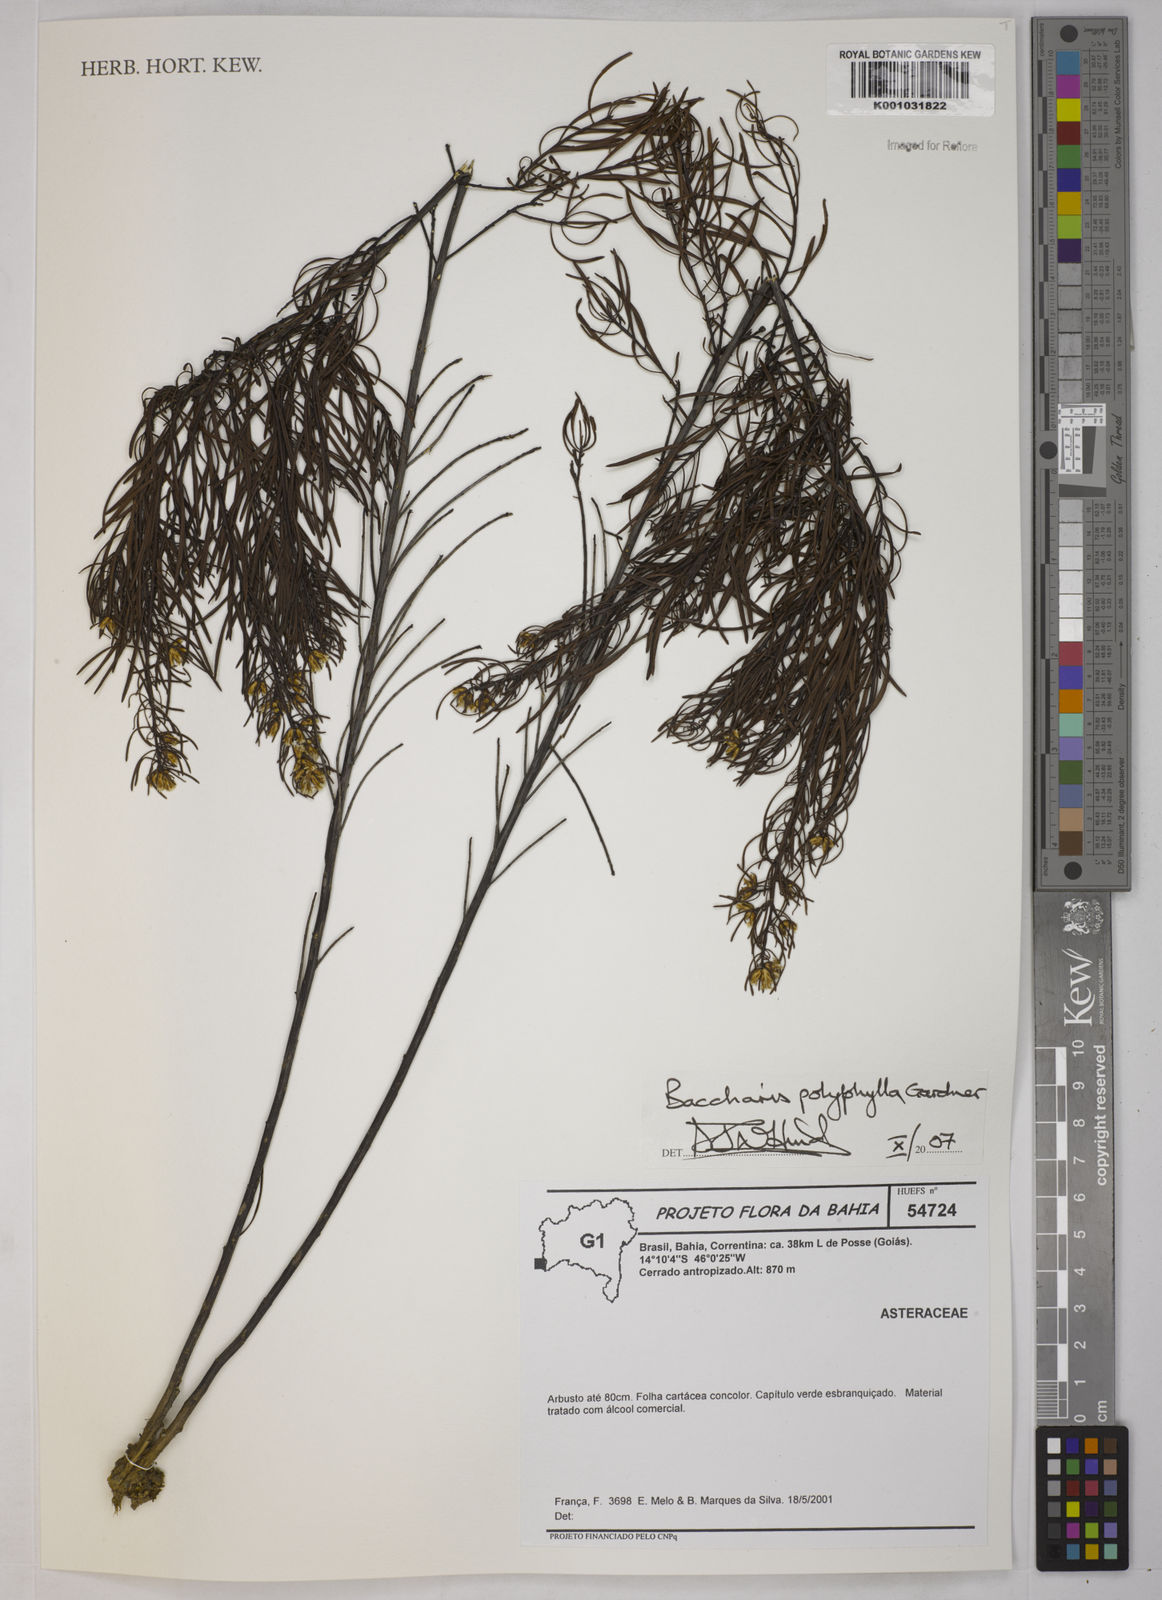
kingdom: Plantae
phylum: Tracheophyta
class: Magnoliopsida
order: Asterales
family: Asteraceae
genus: Baccharis
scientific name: Baccharis polyphylla
